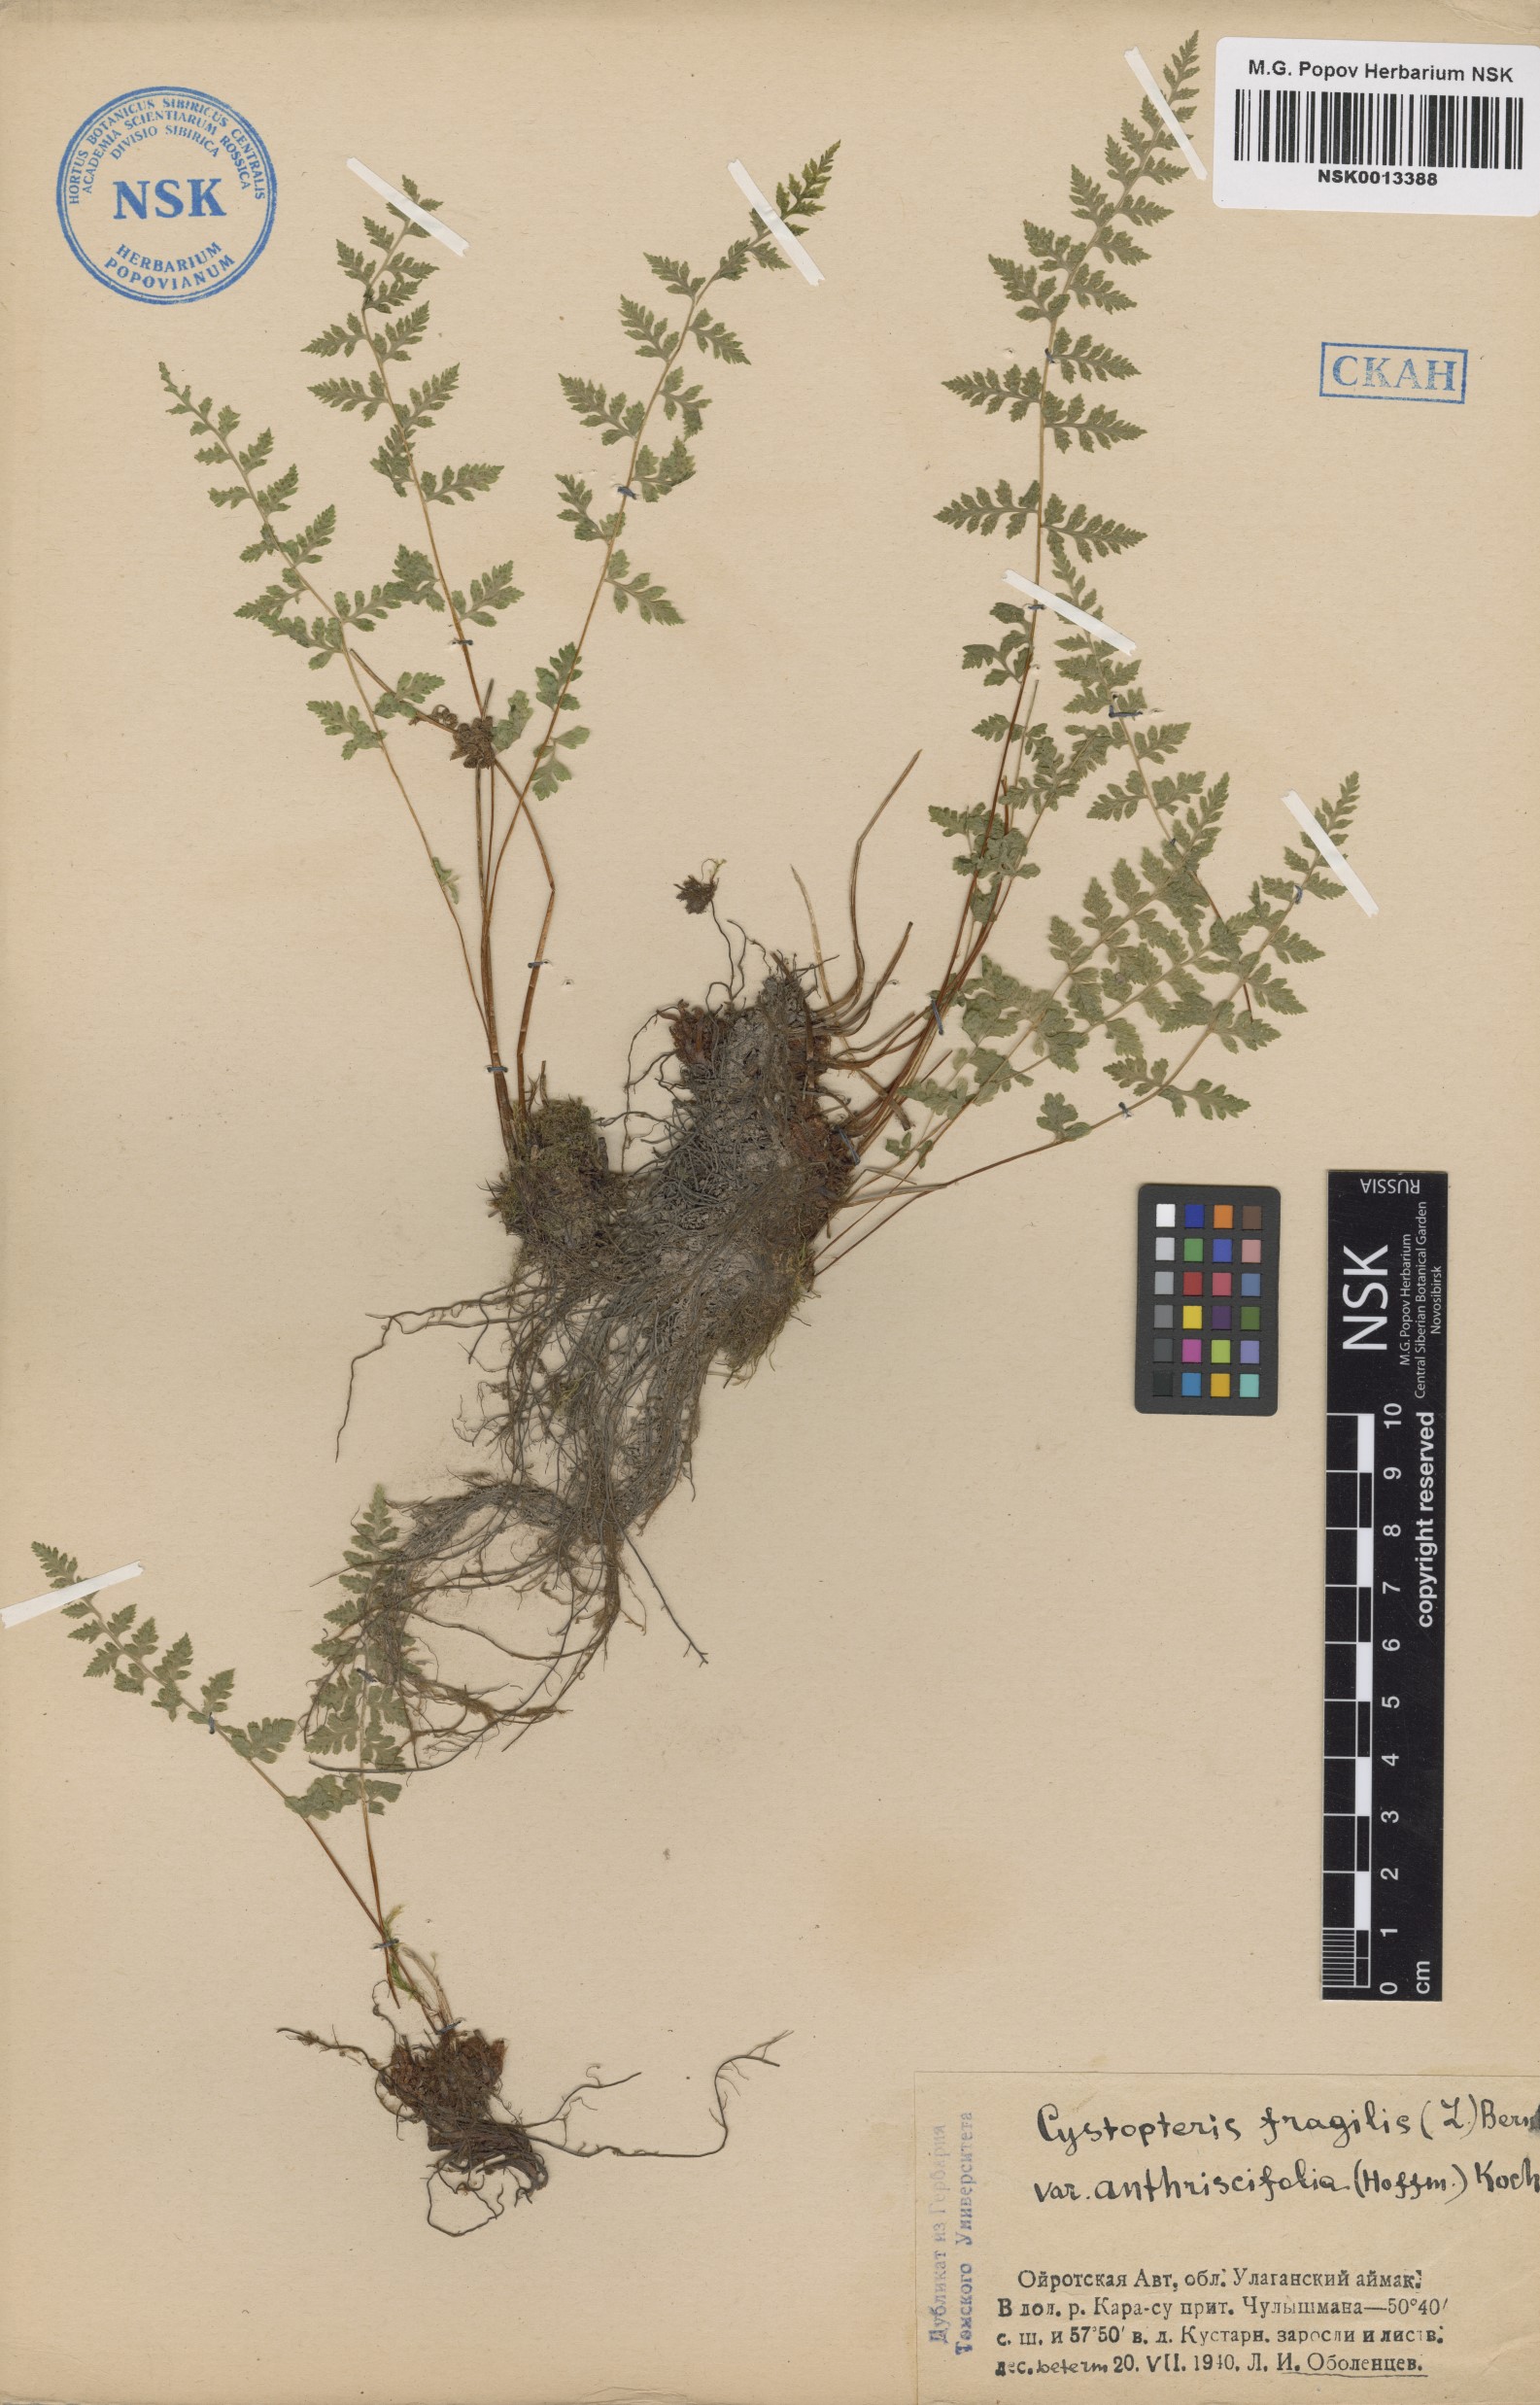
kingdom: Plantae
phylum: Tracheophyta
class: Polypodiopsida
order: Polypodiales
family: Cystopteridaceae
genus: Cystopteris
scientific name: Cystopteris fragilis
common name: Brittle bladder fern
